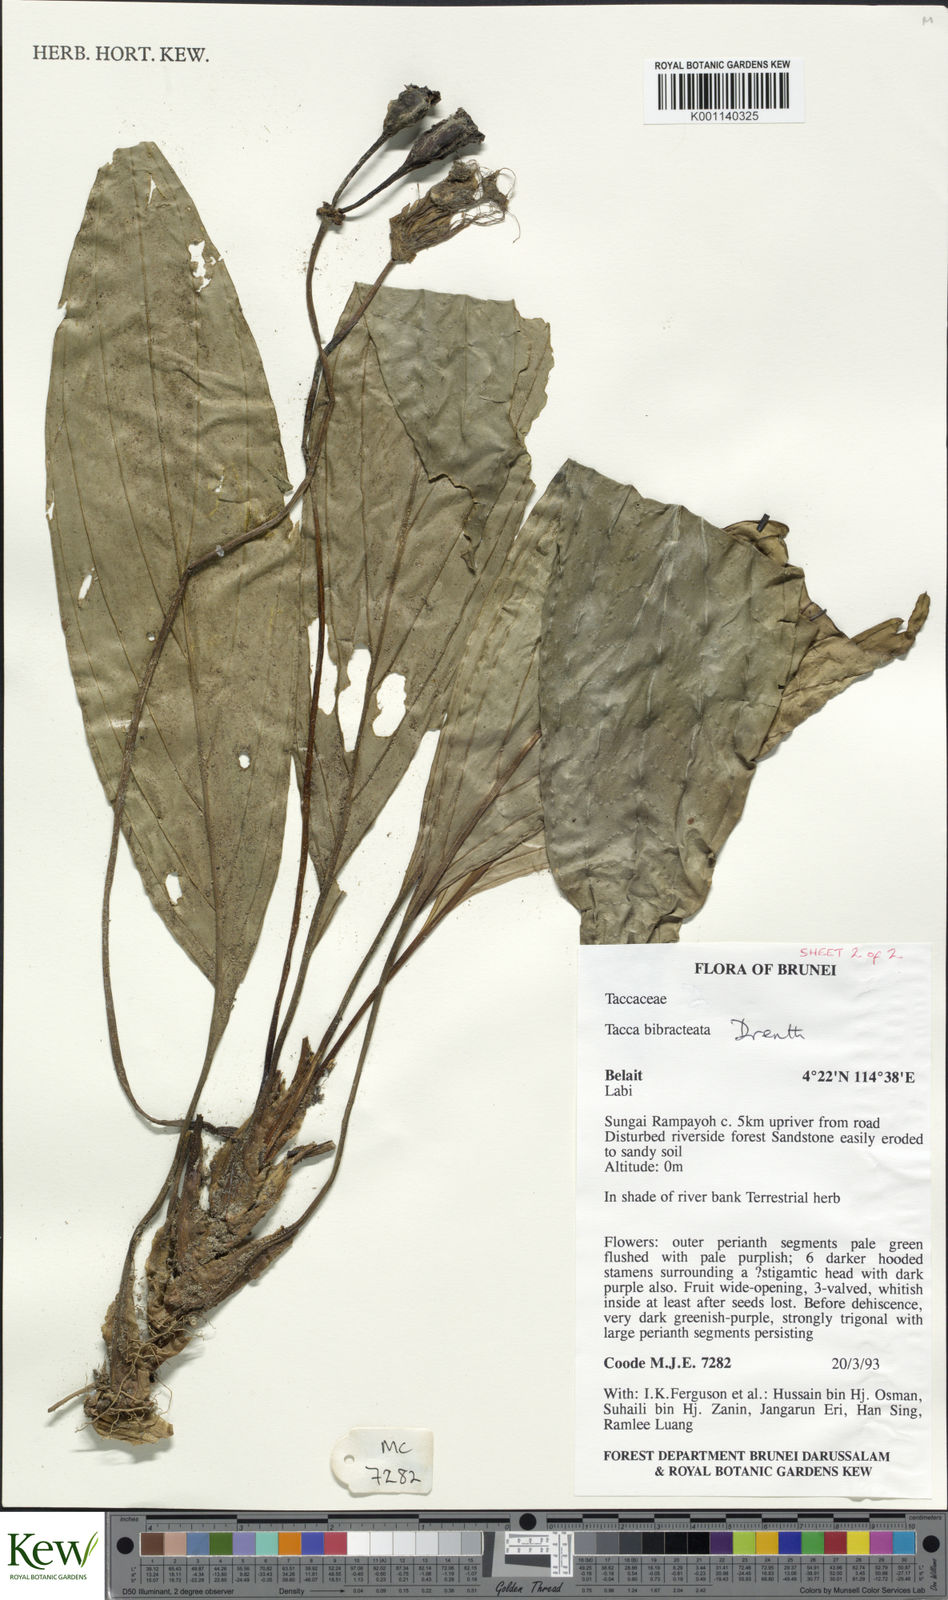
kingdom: Plantae
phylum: Tracheophyta
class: Liliopsida
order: Dioscoreales
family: Dioscoreaceae
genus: Tacca
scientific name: Tacca bibracteata
